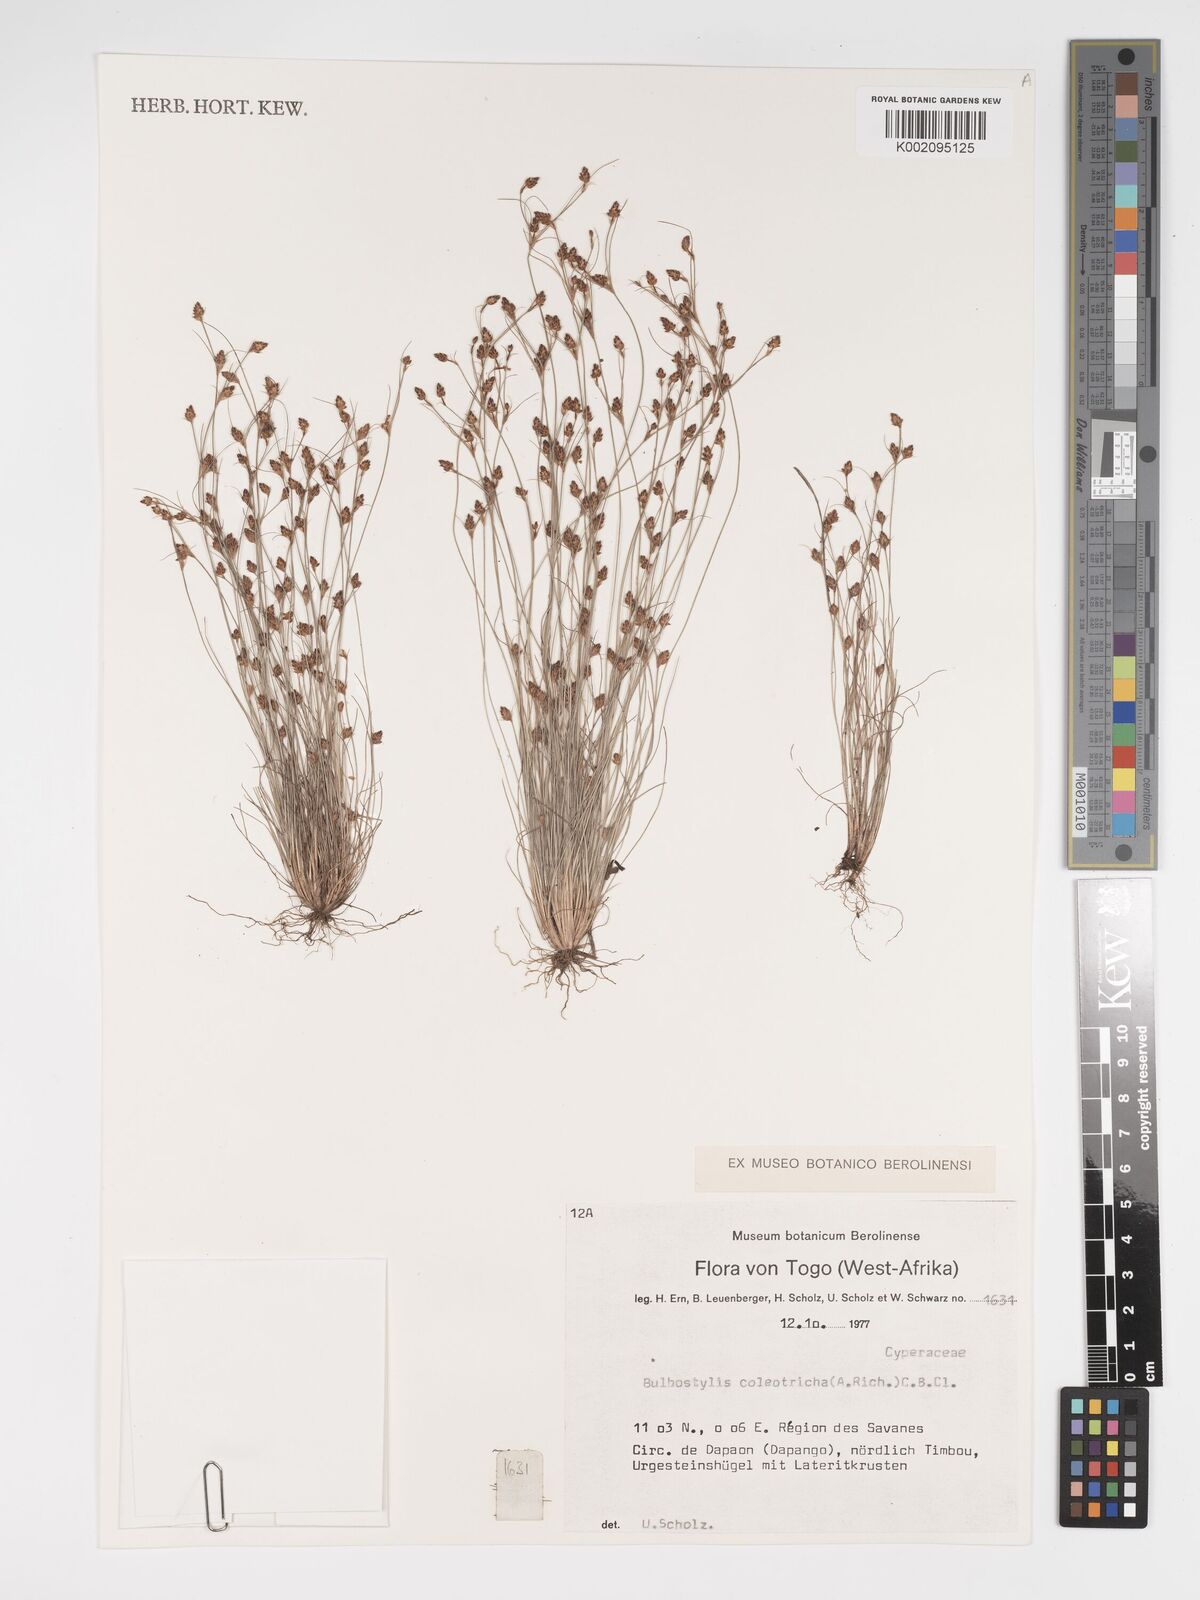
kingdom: Plantae
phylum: Tracheophyta
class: Liliopsida
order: Poales
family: Cyperaceae
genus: Bulbostylis
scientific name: Bulbostylis coleotricha
